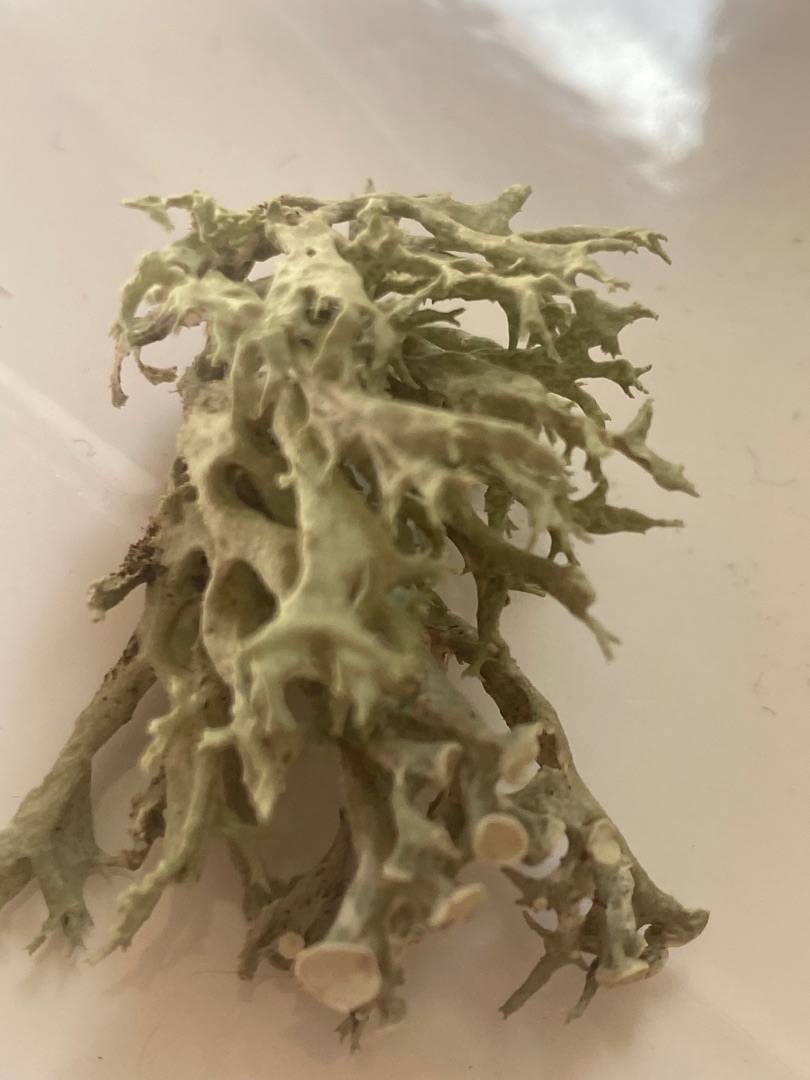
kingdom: Fungi
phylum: Ascomycota
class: Lecanoromycetes
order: Lecanorales
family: Ramalinaceae
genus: Ramalina
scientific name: Ramalina fastigiata
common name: Tue-grenlav
